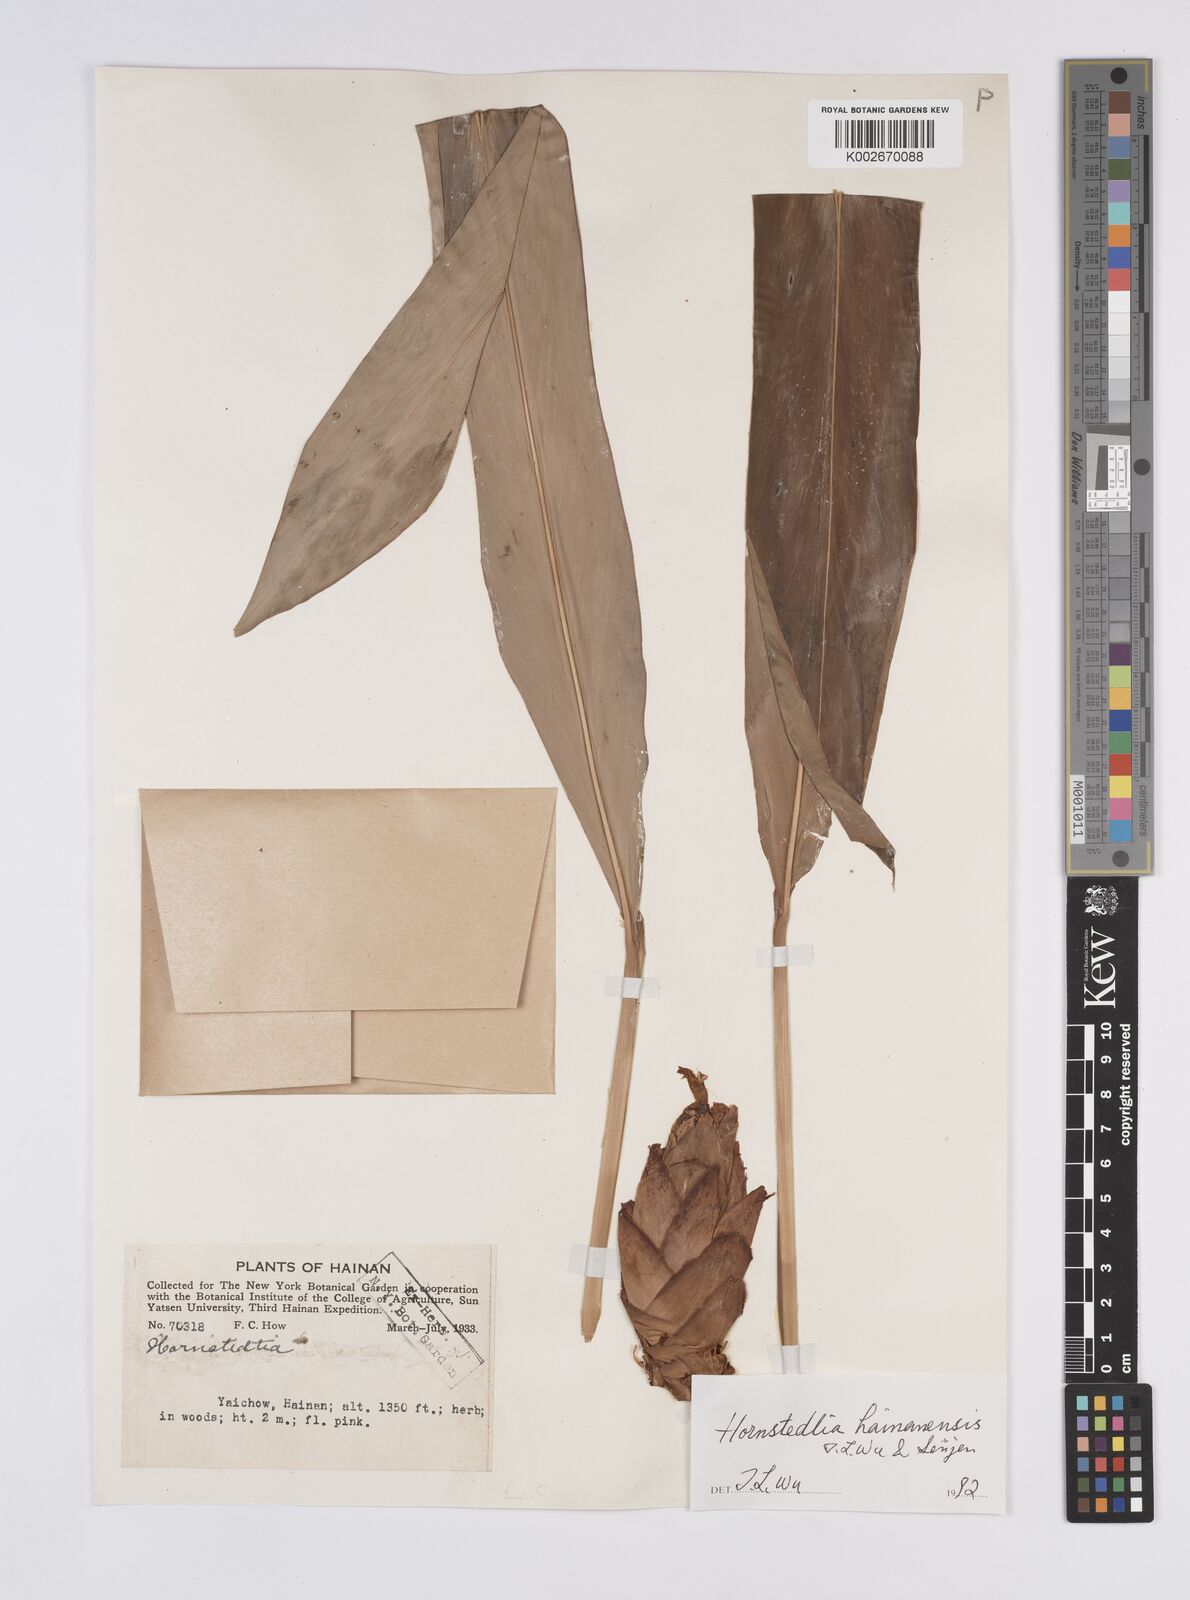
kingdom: Plantae
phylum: Tracheophyta
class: Liliopsida
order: Zingiberales
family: Zingiberaceae
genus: Hornstedtia
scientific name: Hornstedtia hainanensis
